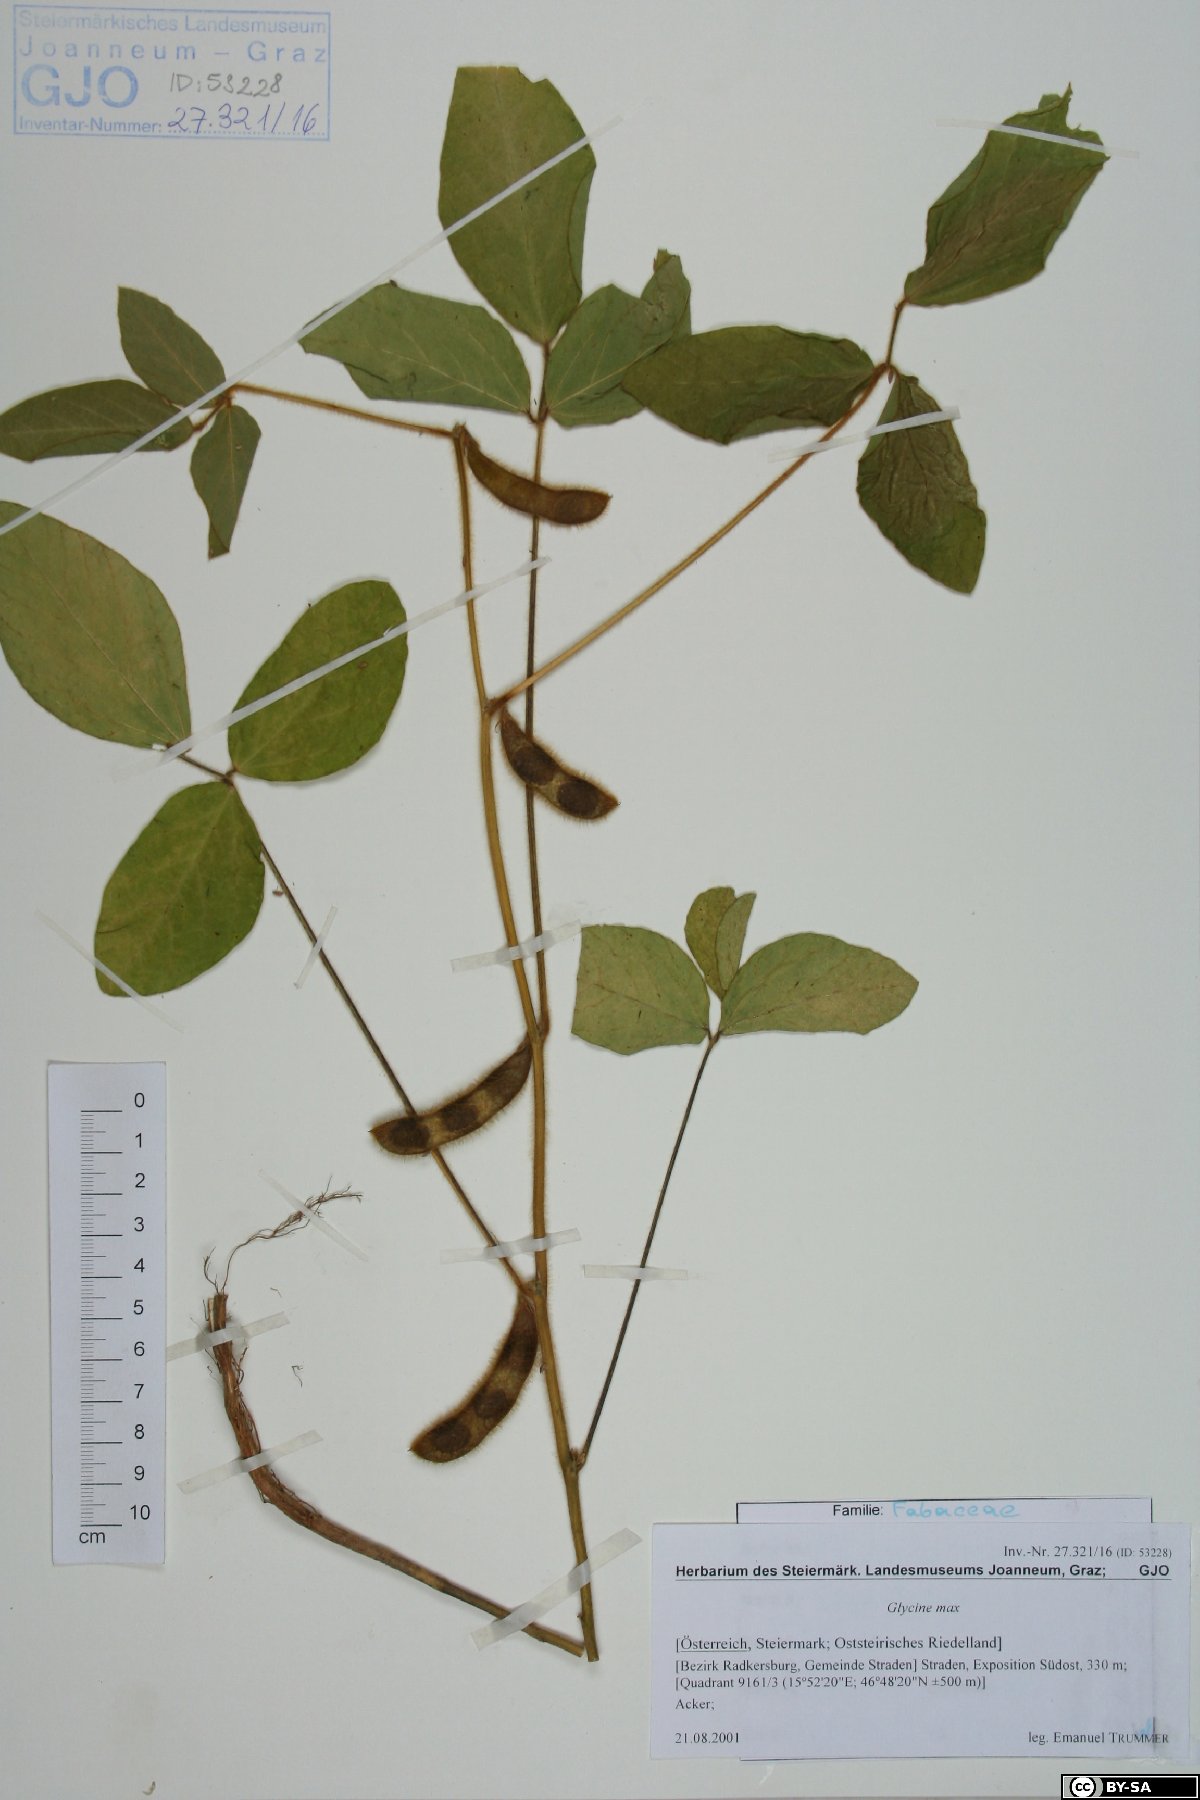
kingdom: Plantae
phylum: Tracheophyta
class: Magnoliopsida
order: Fabales
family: Fabaceae
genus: Glycine
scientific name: Glycine max
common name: Soya-bean
